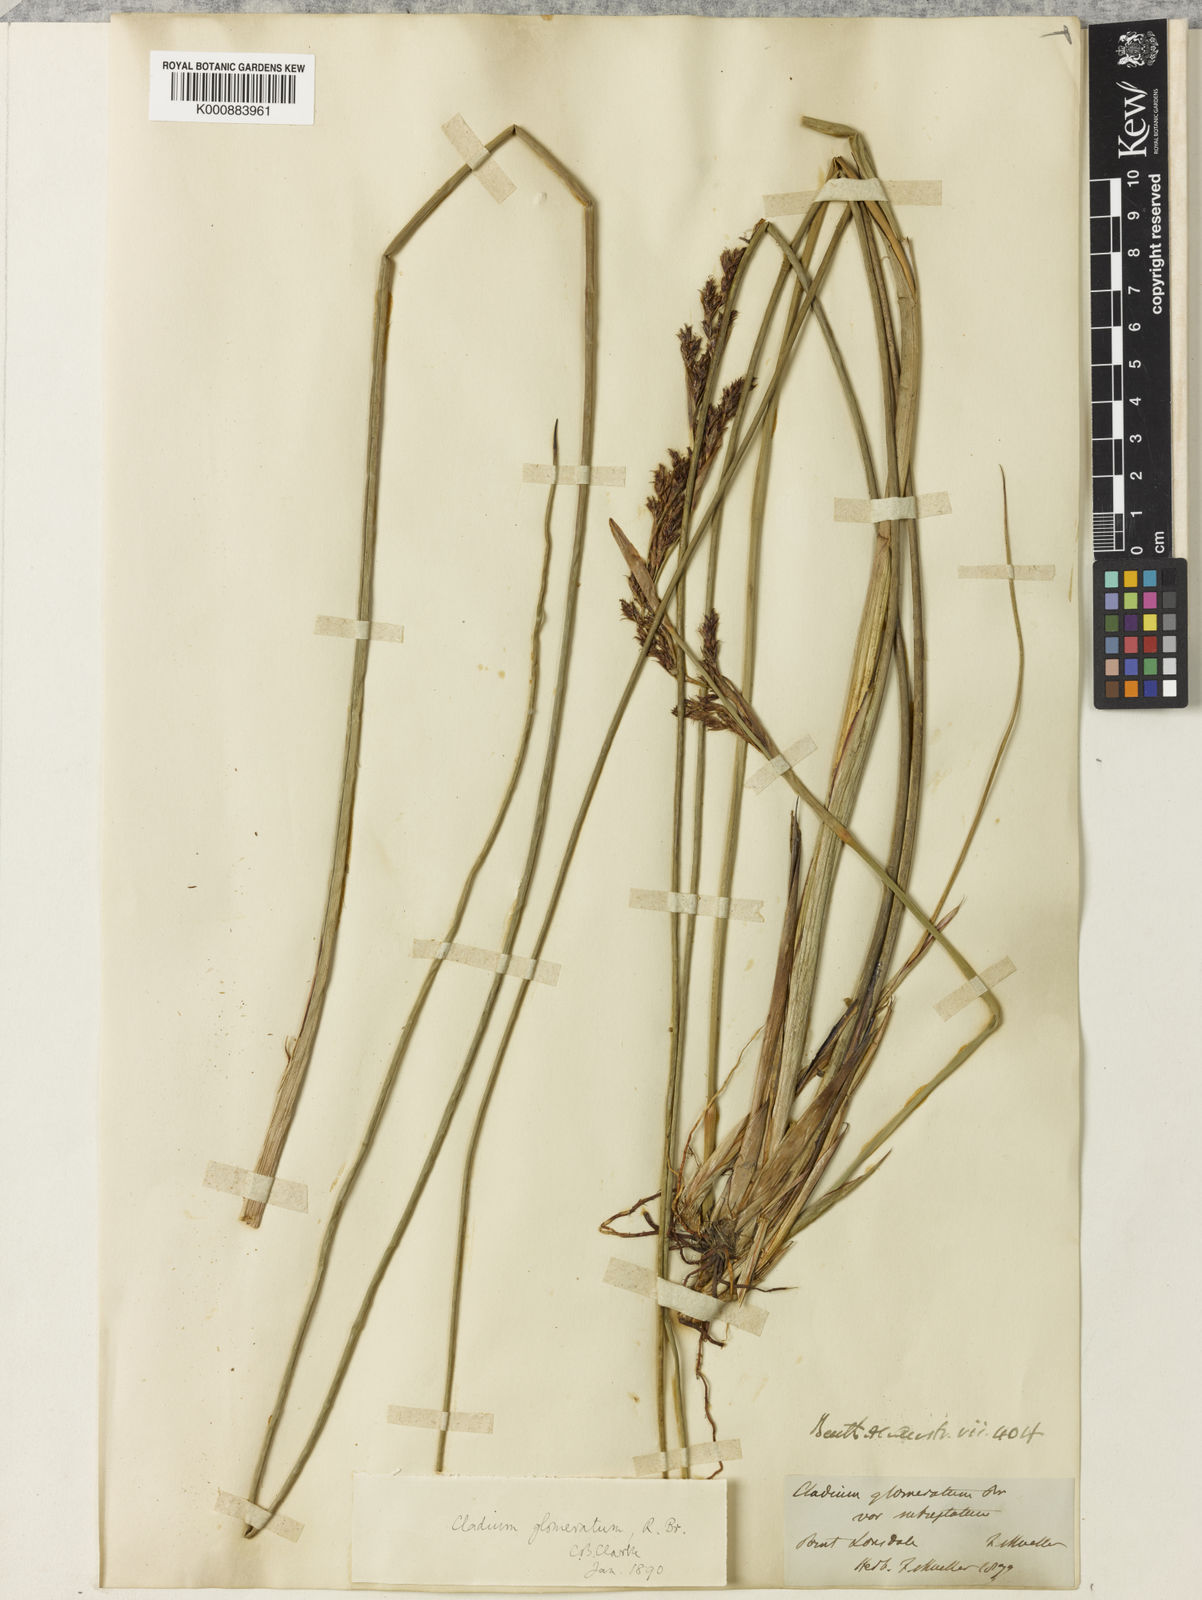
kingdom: Plantae
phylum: Tracheophyta
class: Liliopsida
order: Poales
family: Cyperaceae
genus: Machaerina
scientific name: Machaerina rubiginosa
